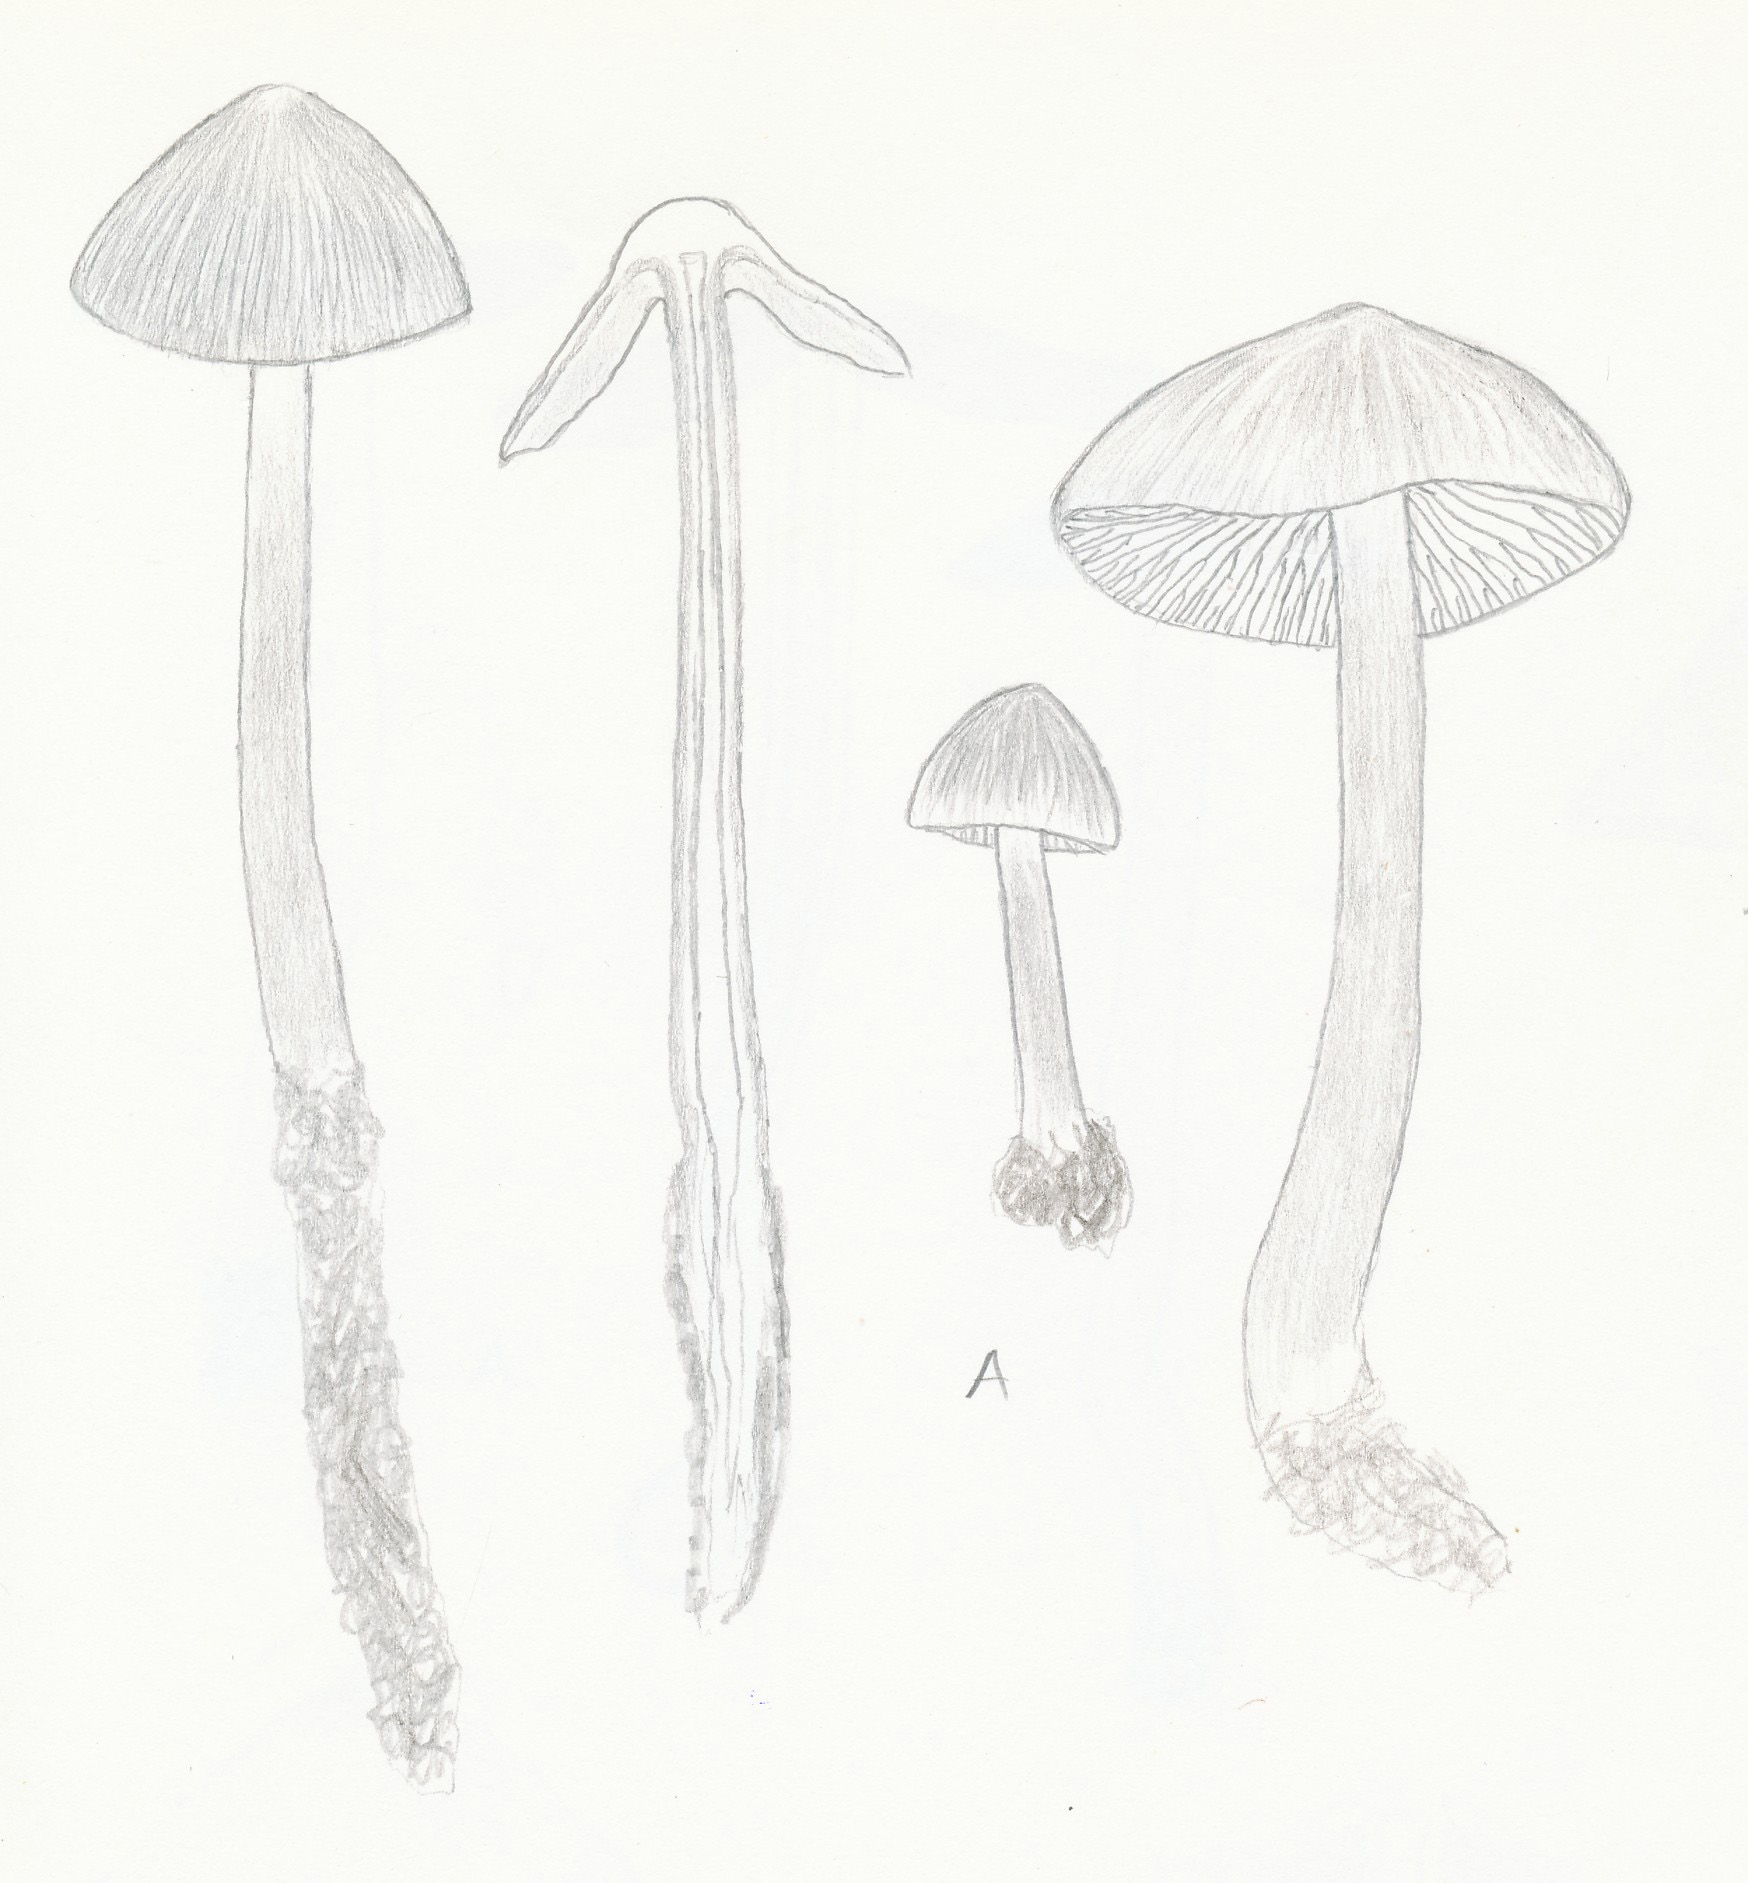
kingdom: Fungi
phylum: Basidiomycota
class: Agaricomycetes
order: Agaricales
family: Mycenaceae
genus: Mycena
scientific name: Mycena galericulata
